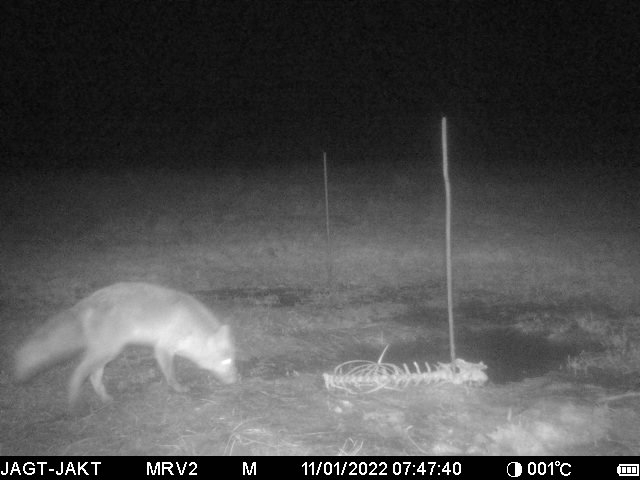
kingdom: Animalia
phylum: Chordata
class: Mammalia
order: Carnivora
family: Canidae
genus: Vulpes
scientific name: Vulpes vulpes
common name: Ræv
